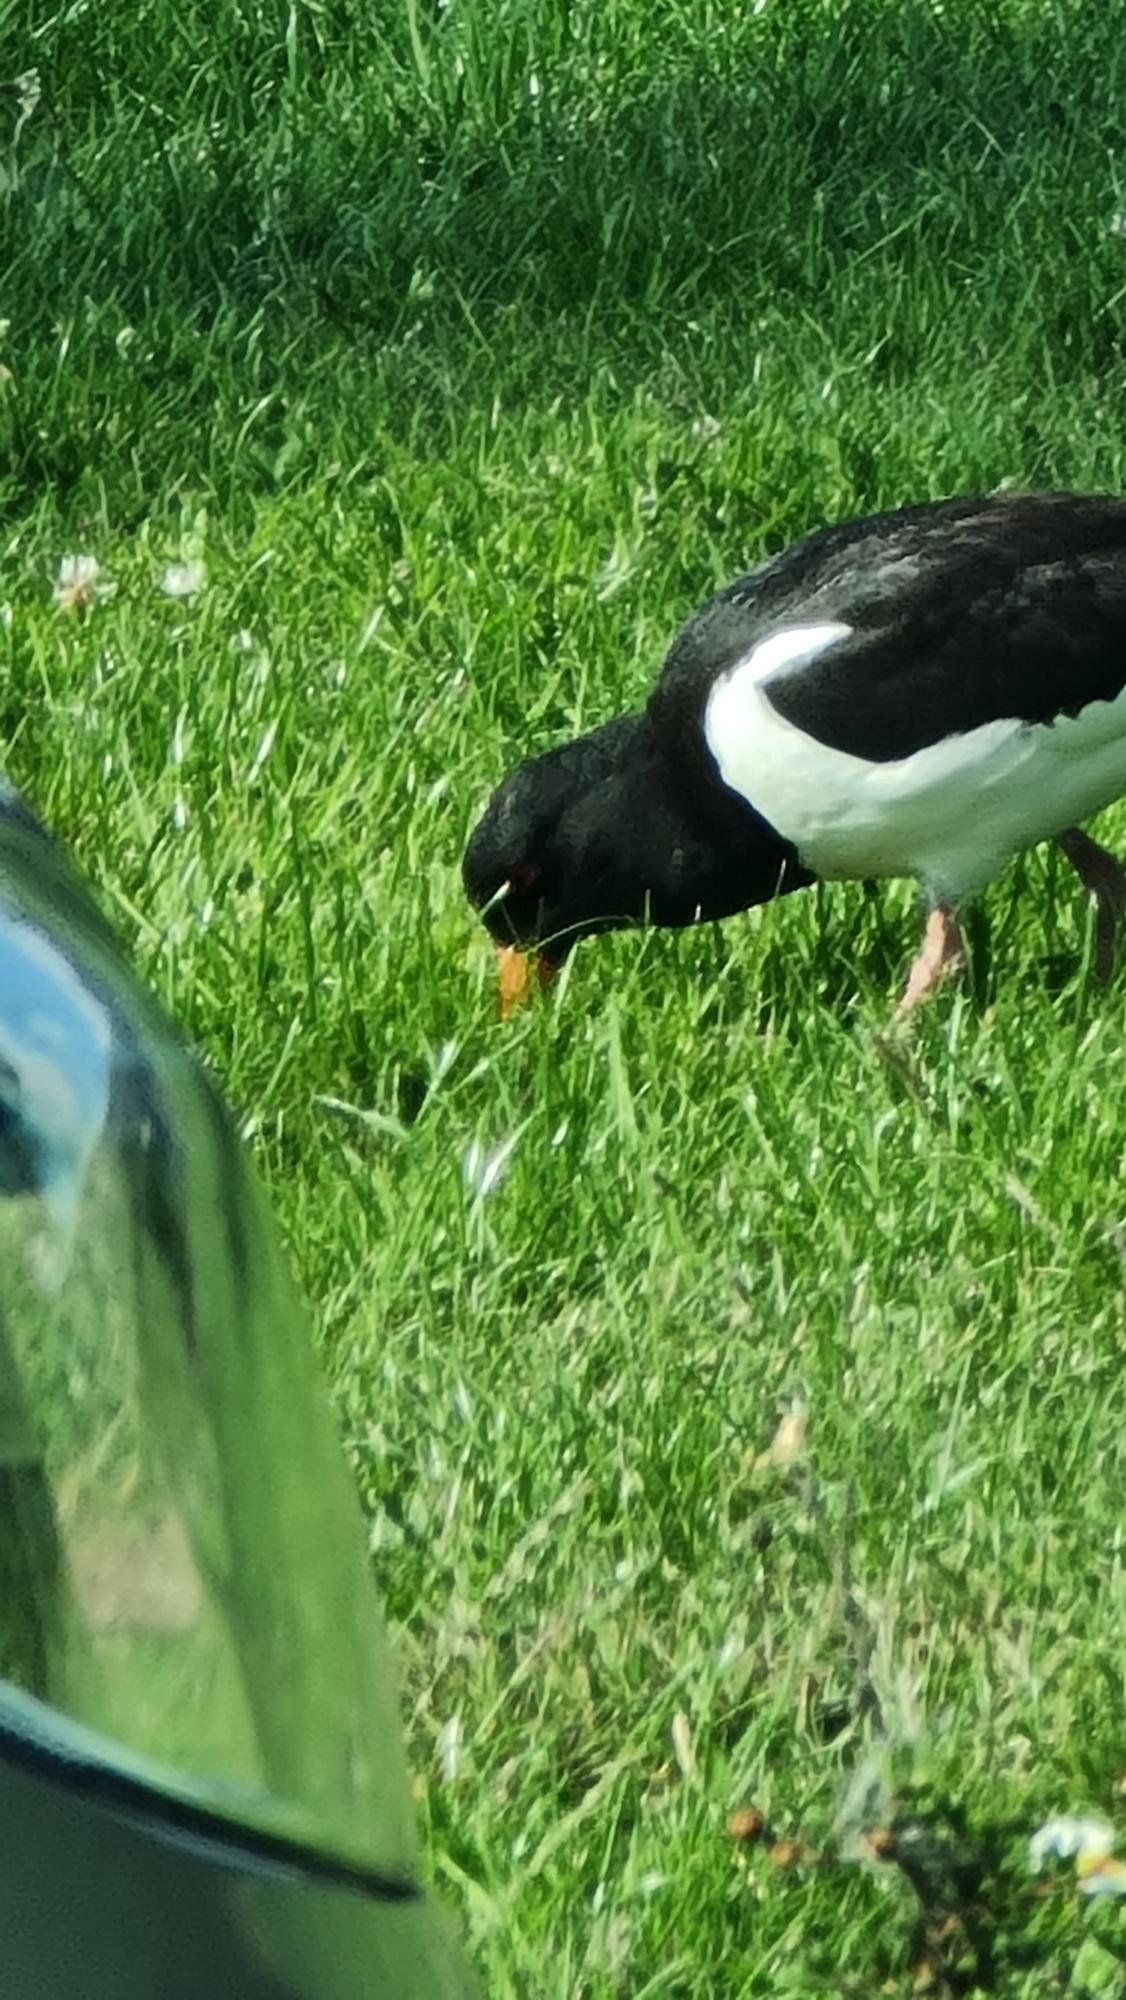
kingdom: Animalia
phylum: Chordata
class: Aves
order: Charadriiformes
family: Haematopodidae
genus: Haematopus
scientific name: Haematopus ostralegus
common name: Strandskade
